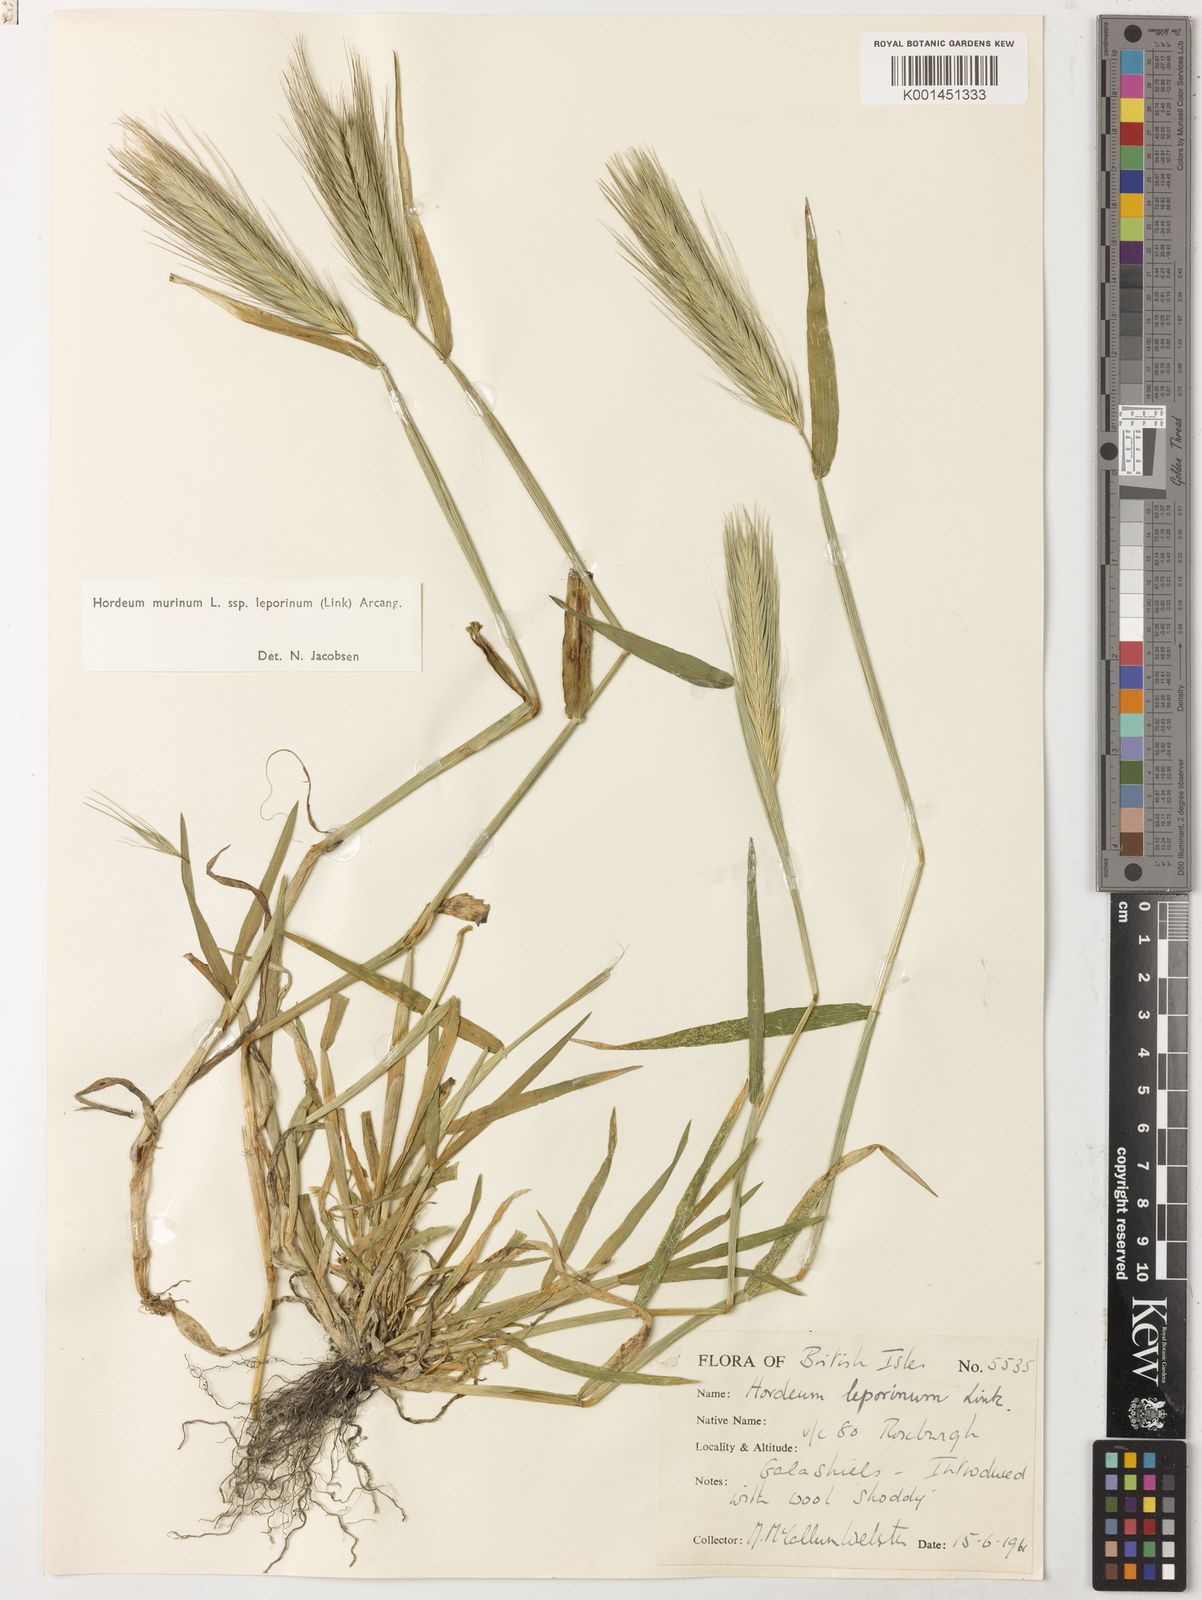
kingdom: Plantae
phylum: Tracheophyta
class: Liliopsida
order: Poales
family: Poaceae
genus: Hordeum
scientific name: Hordeum murinum
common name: Wall barley
